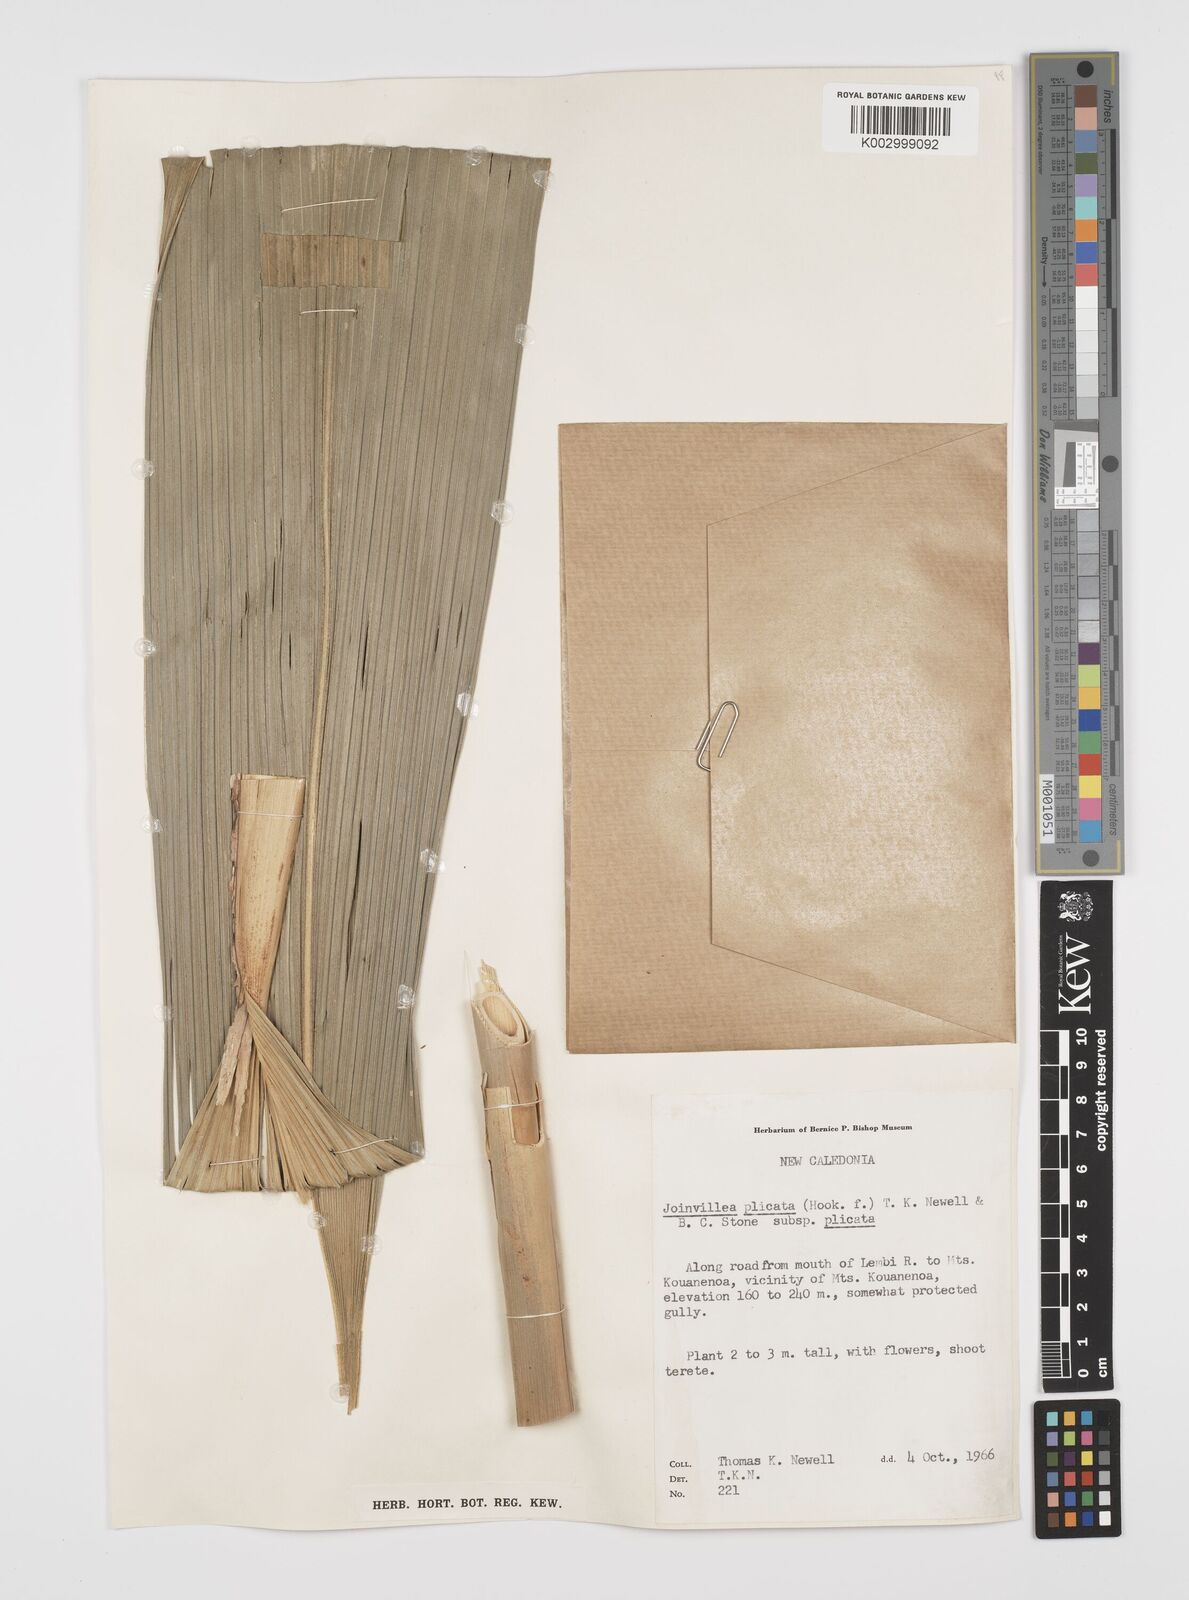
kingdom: Plantae
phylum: Tracheophyta
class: Liliopsida
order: Poales
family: Joinvilleaceae
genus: Joinvillea
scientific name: Joinvillea plicata
